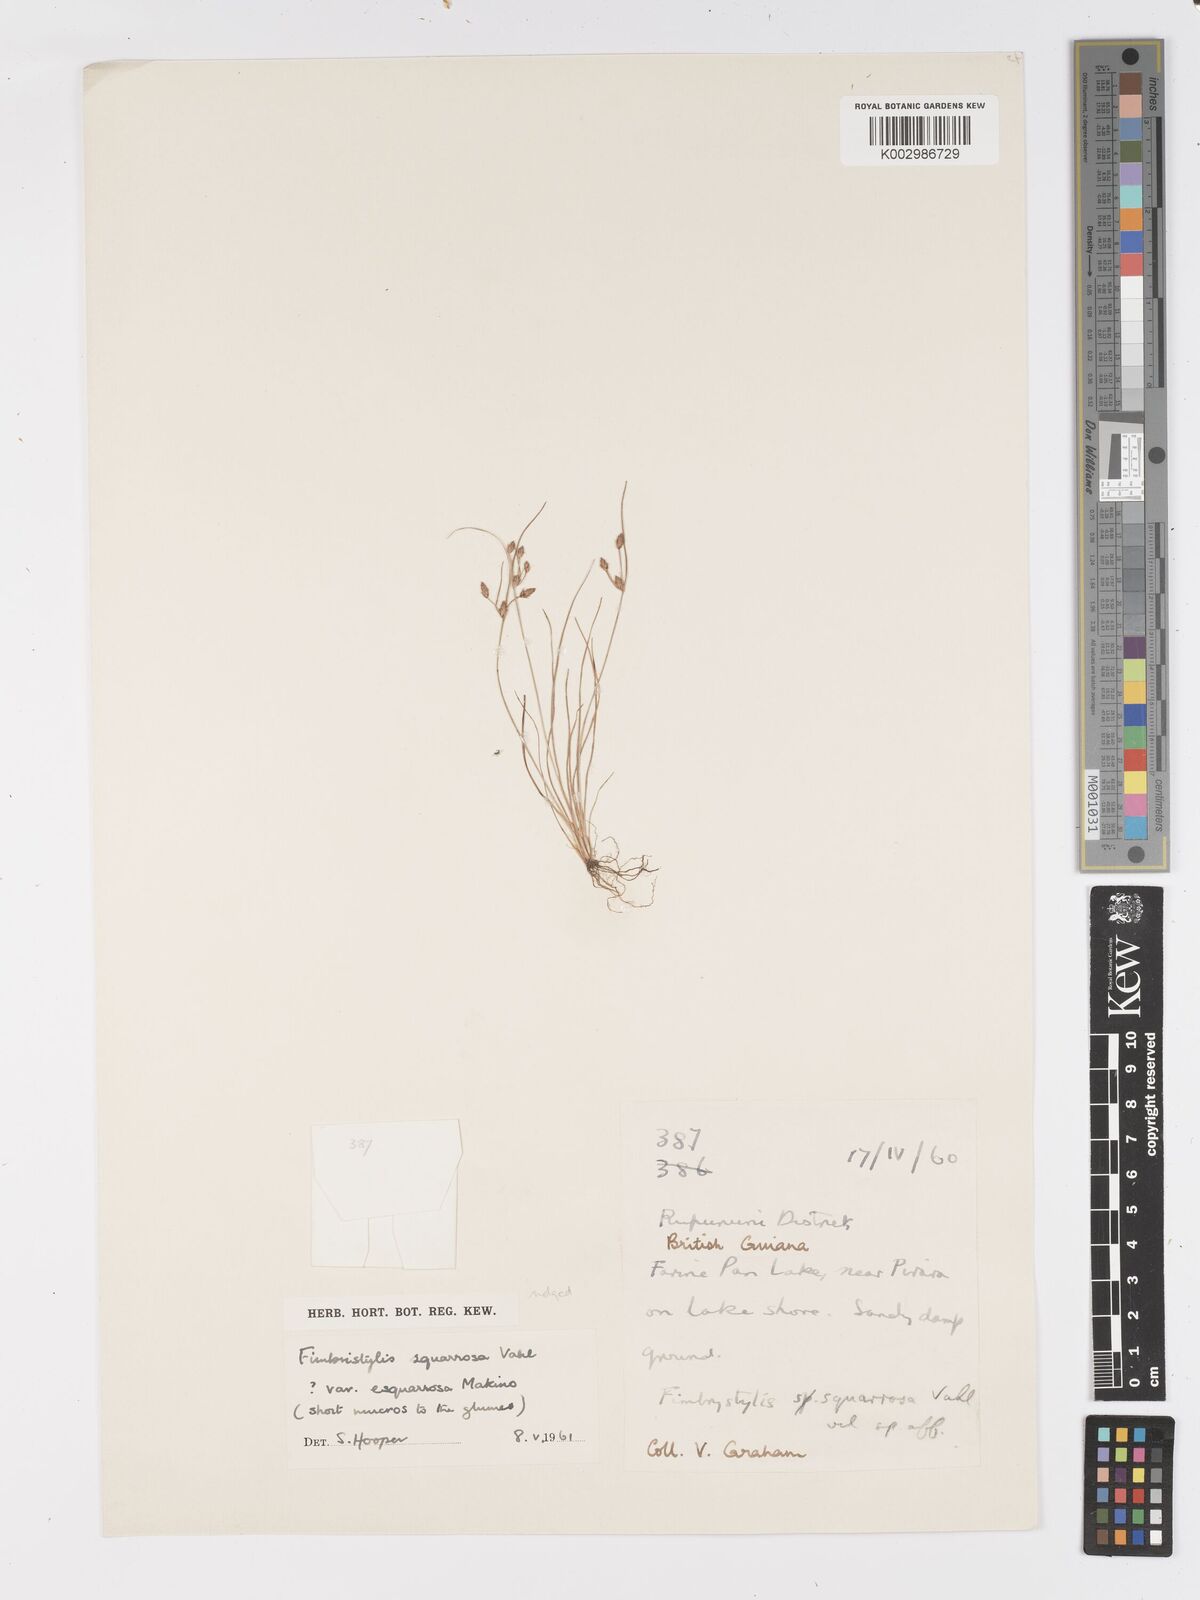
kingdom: Plantae
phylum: Tracheophyta
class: Liliopsida
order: Poales
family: Cyperaceae
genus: Fimbristylis
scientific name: Fimbristylis velata
